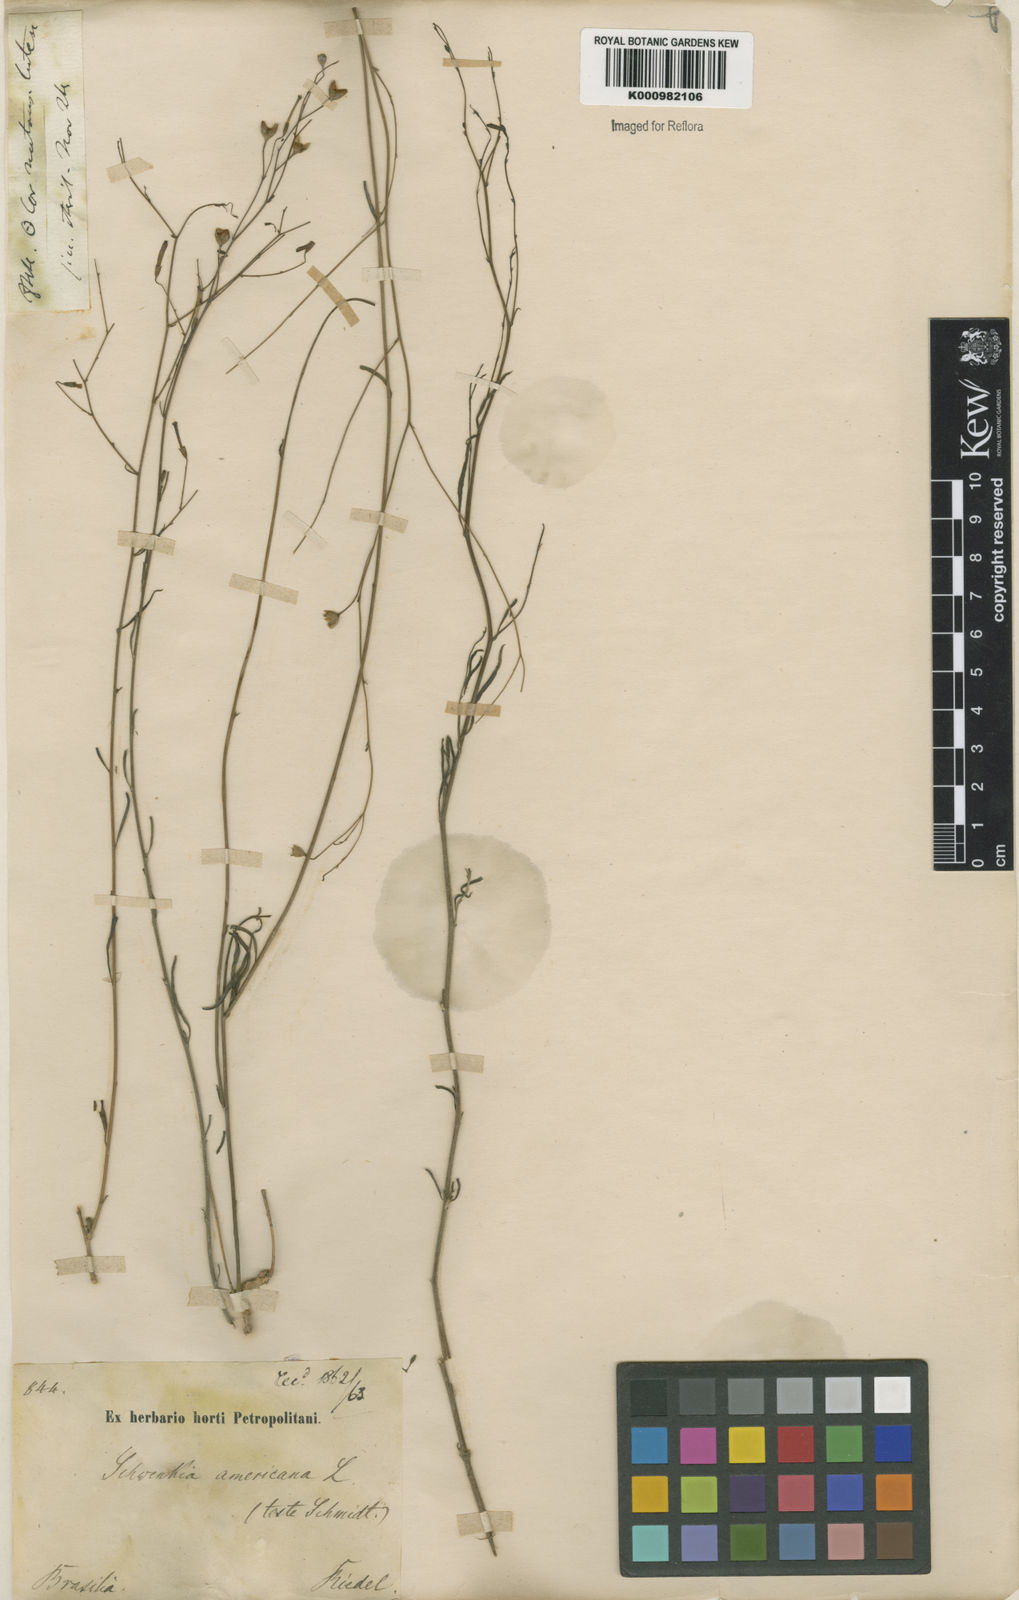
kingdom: Plantae
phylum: Tracheophyta
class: Magnoliopsida
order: Solanales
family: Solanaceae
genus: Schwenckia
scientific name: Schwenckia americana
